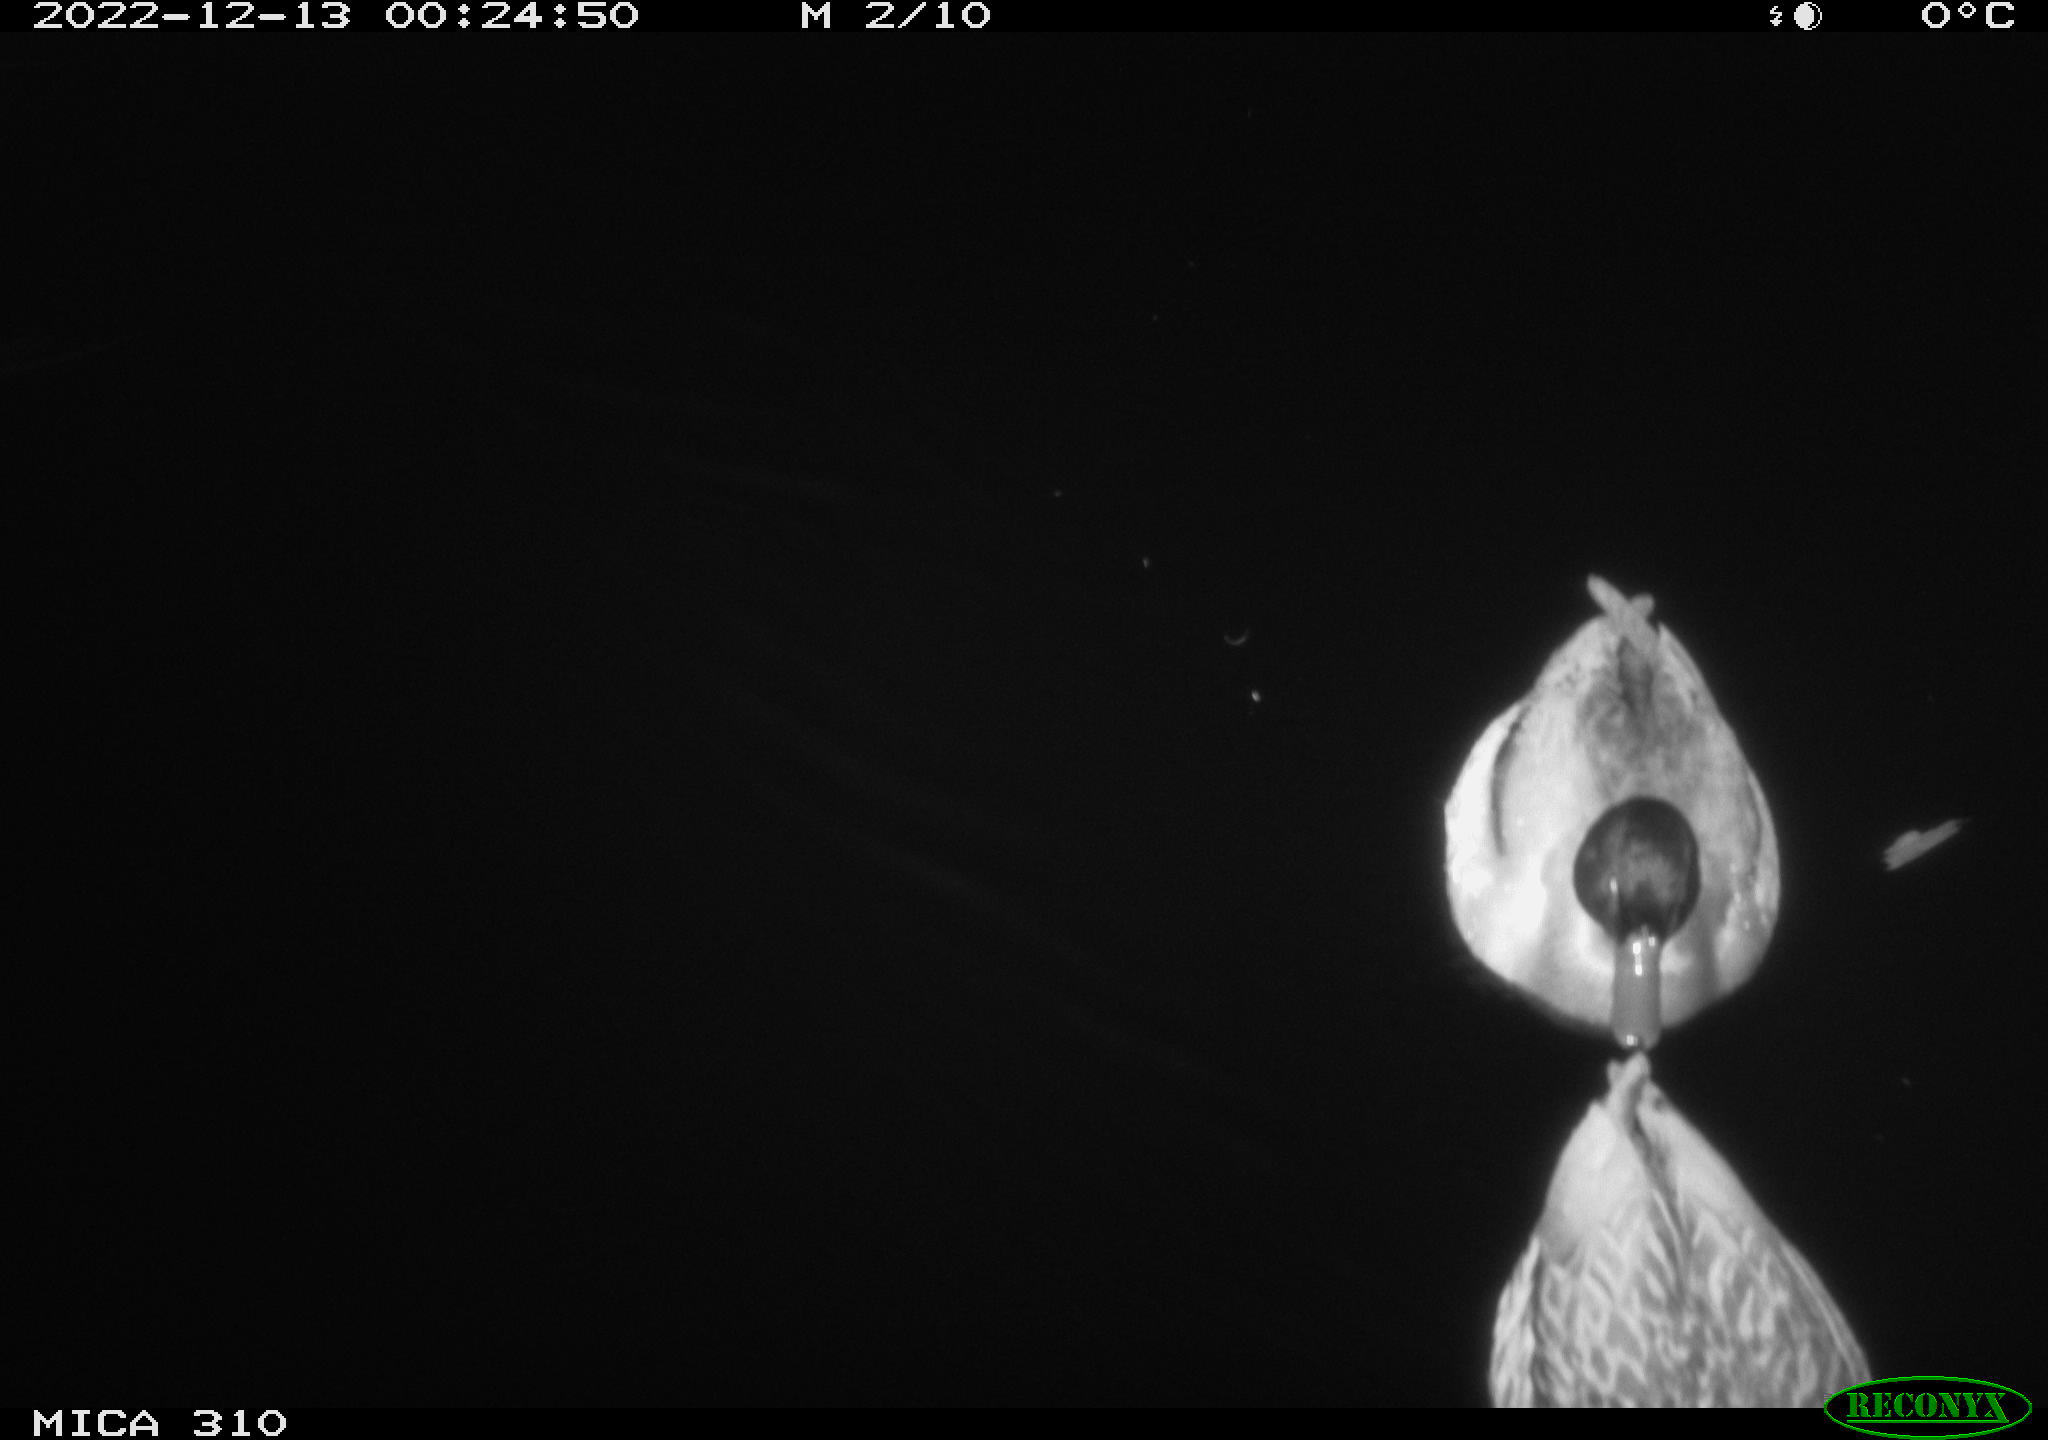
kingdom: Animalia
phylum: Chordata
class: Aves
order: Anseriformes
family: Anatidae
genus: Anas
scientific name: Anas
